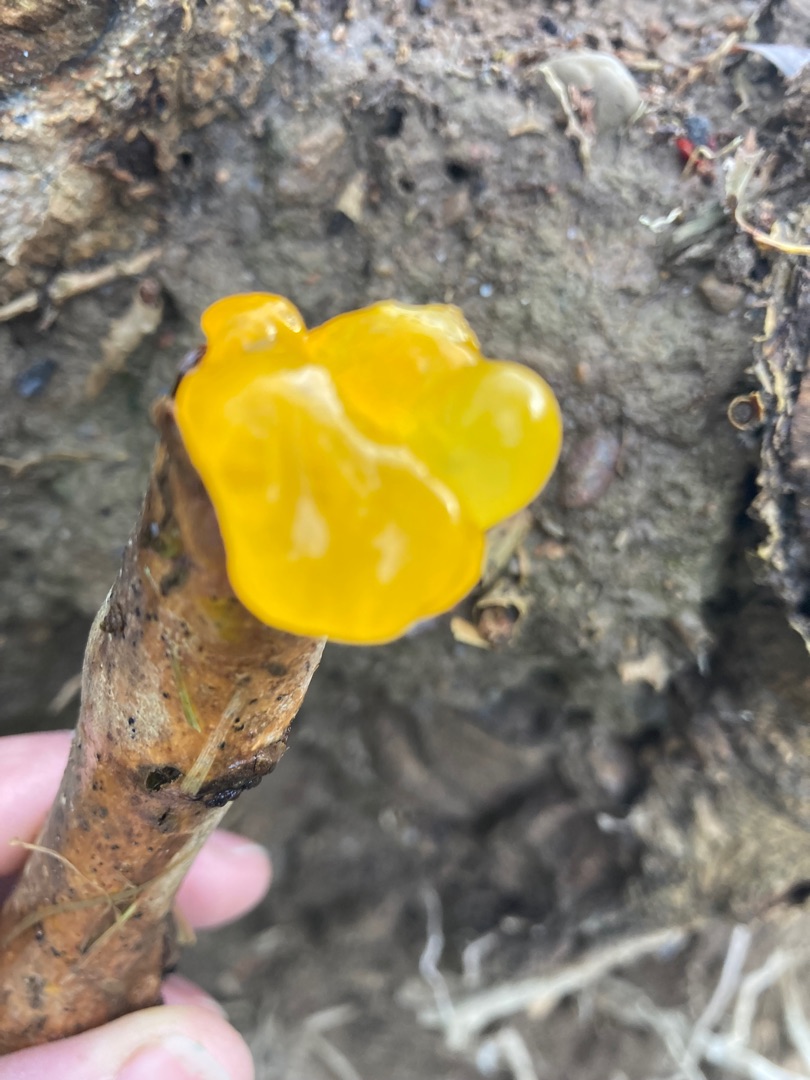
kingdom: Fungi
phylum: Basidiomycota
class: Tremellomycetes
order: Tremellales
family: Tremellaceae
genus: Tremella
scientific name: Tremella mesenterica
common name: Gul bævresvamp
